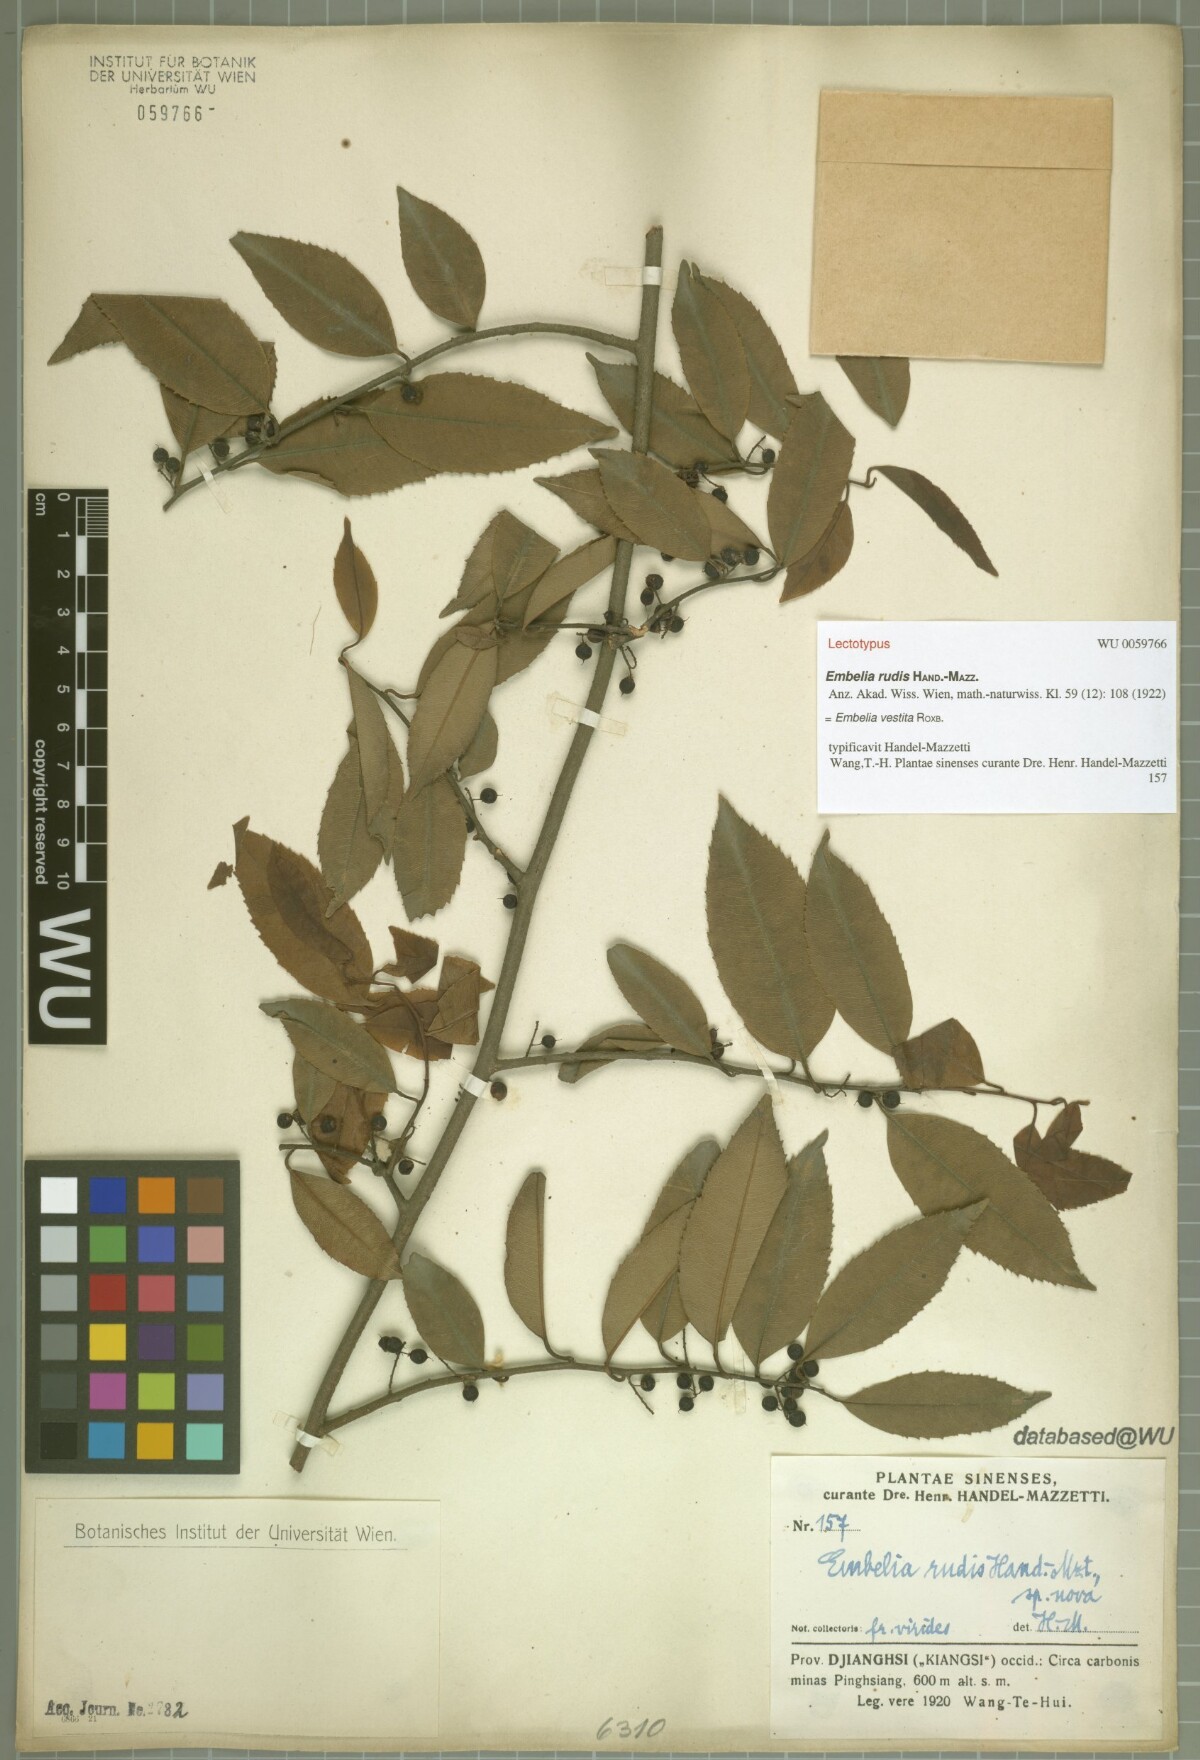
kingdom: Plantae
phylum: Tracheophyta
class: Magnoliopsida
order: Ericales
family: Primulaceae
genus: Embelia
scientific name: Embelia vestita
